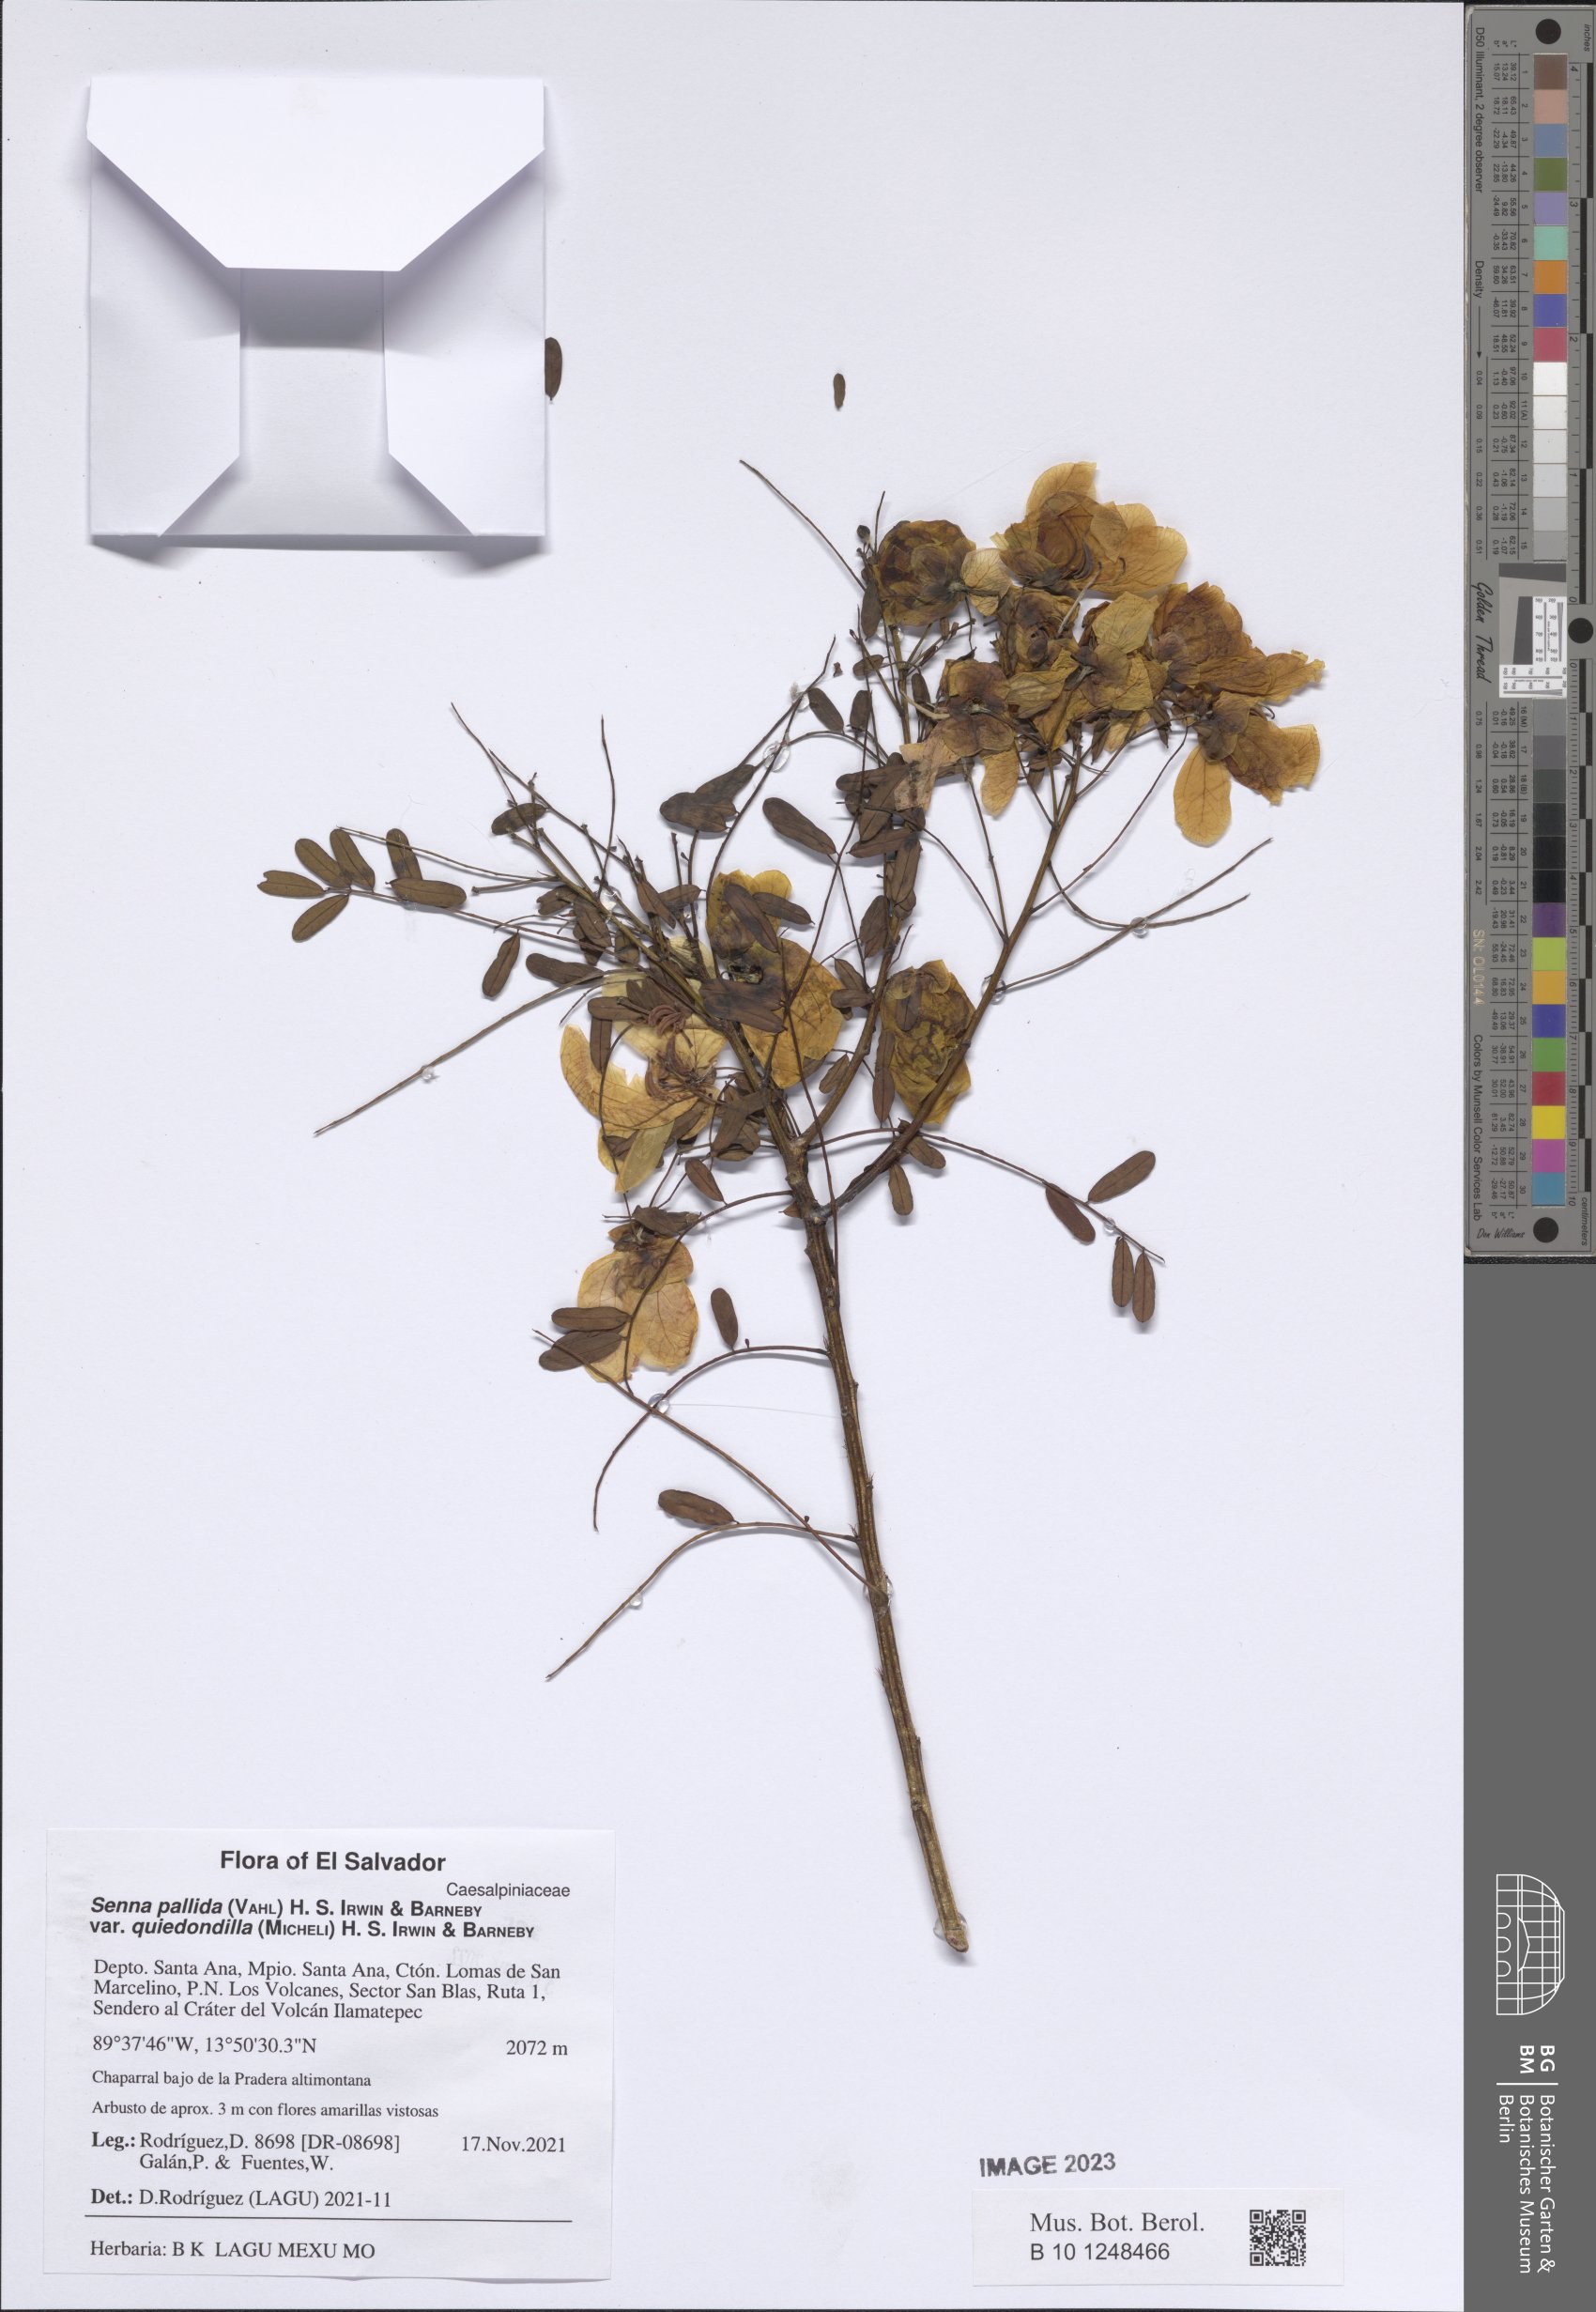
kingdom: Plantae
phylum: Tracheophyta
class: Magnoliopsida
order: Fabales
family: Fabaceae
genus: Senna
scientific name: Senna pallida
